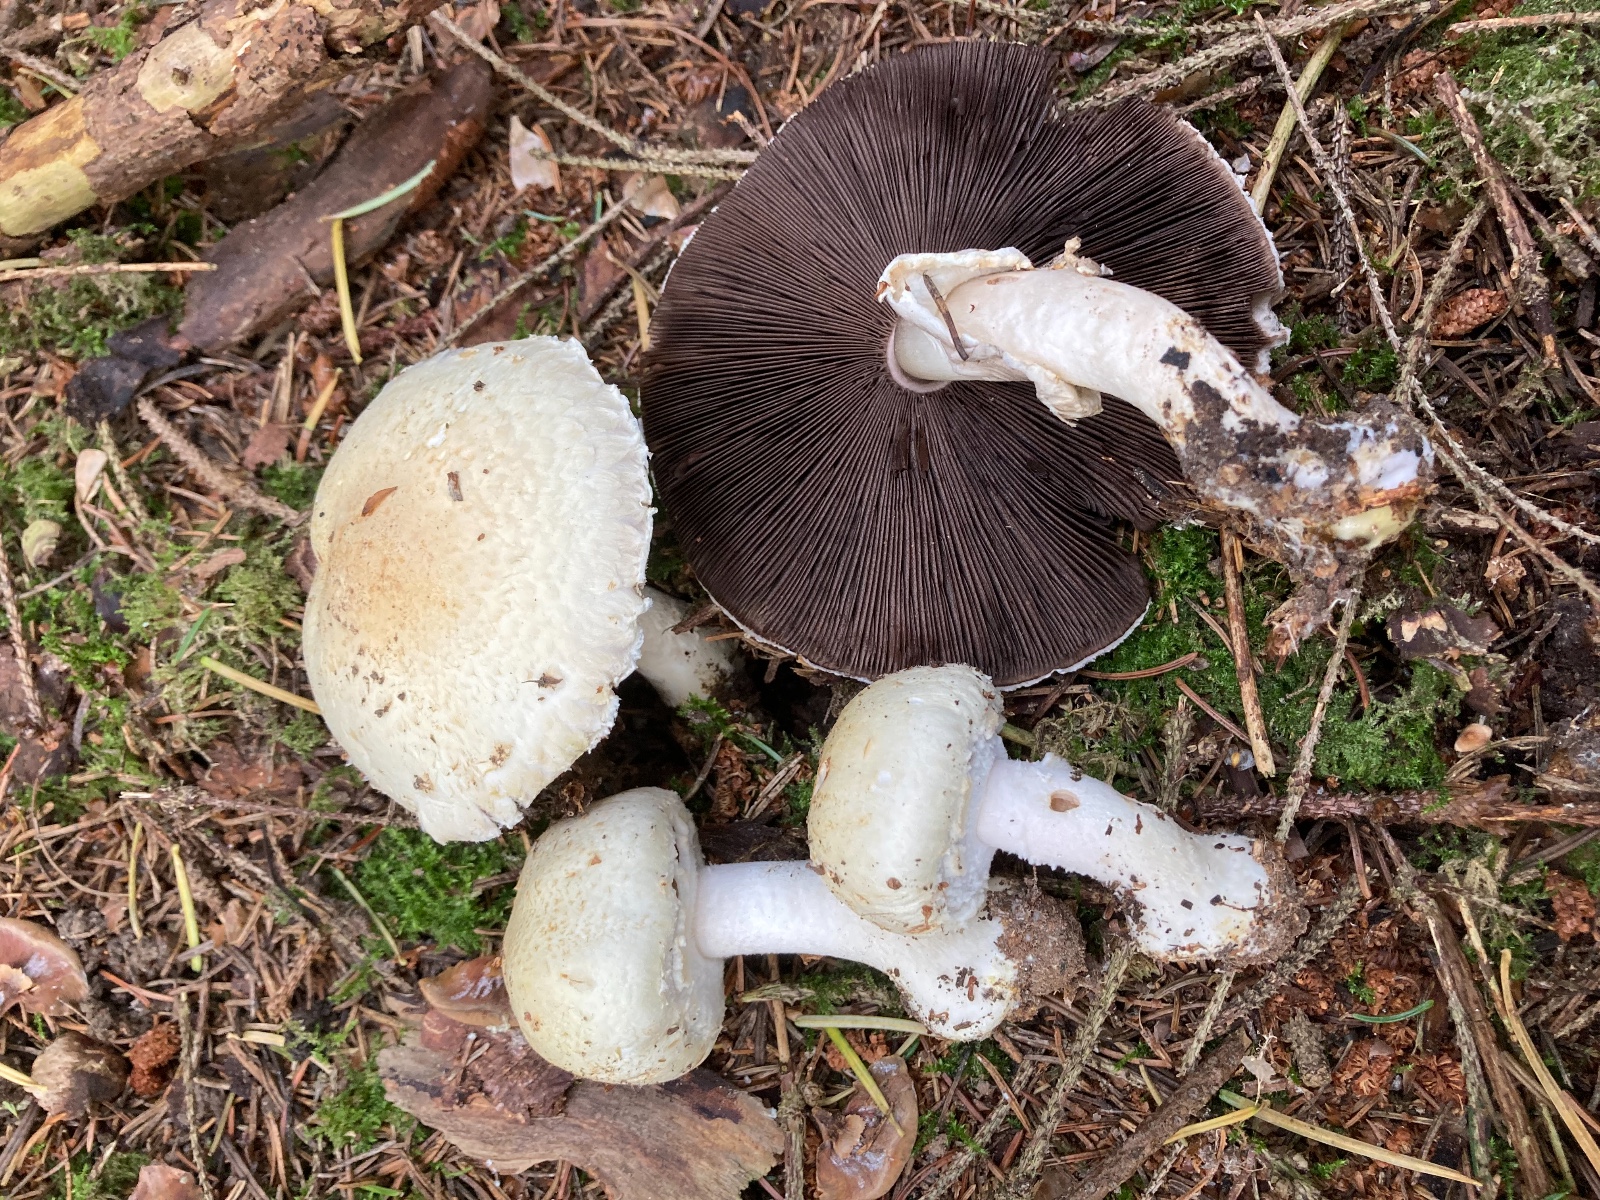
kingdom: Fungi
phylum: Basidiomycota
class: Agaricomycetes
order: Agaricales
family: Agaricaceae
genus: Agaricus
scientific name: Agaricus sylvicola
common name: skiveknoldet champignon
